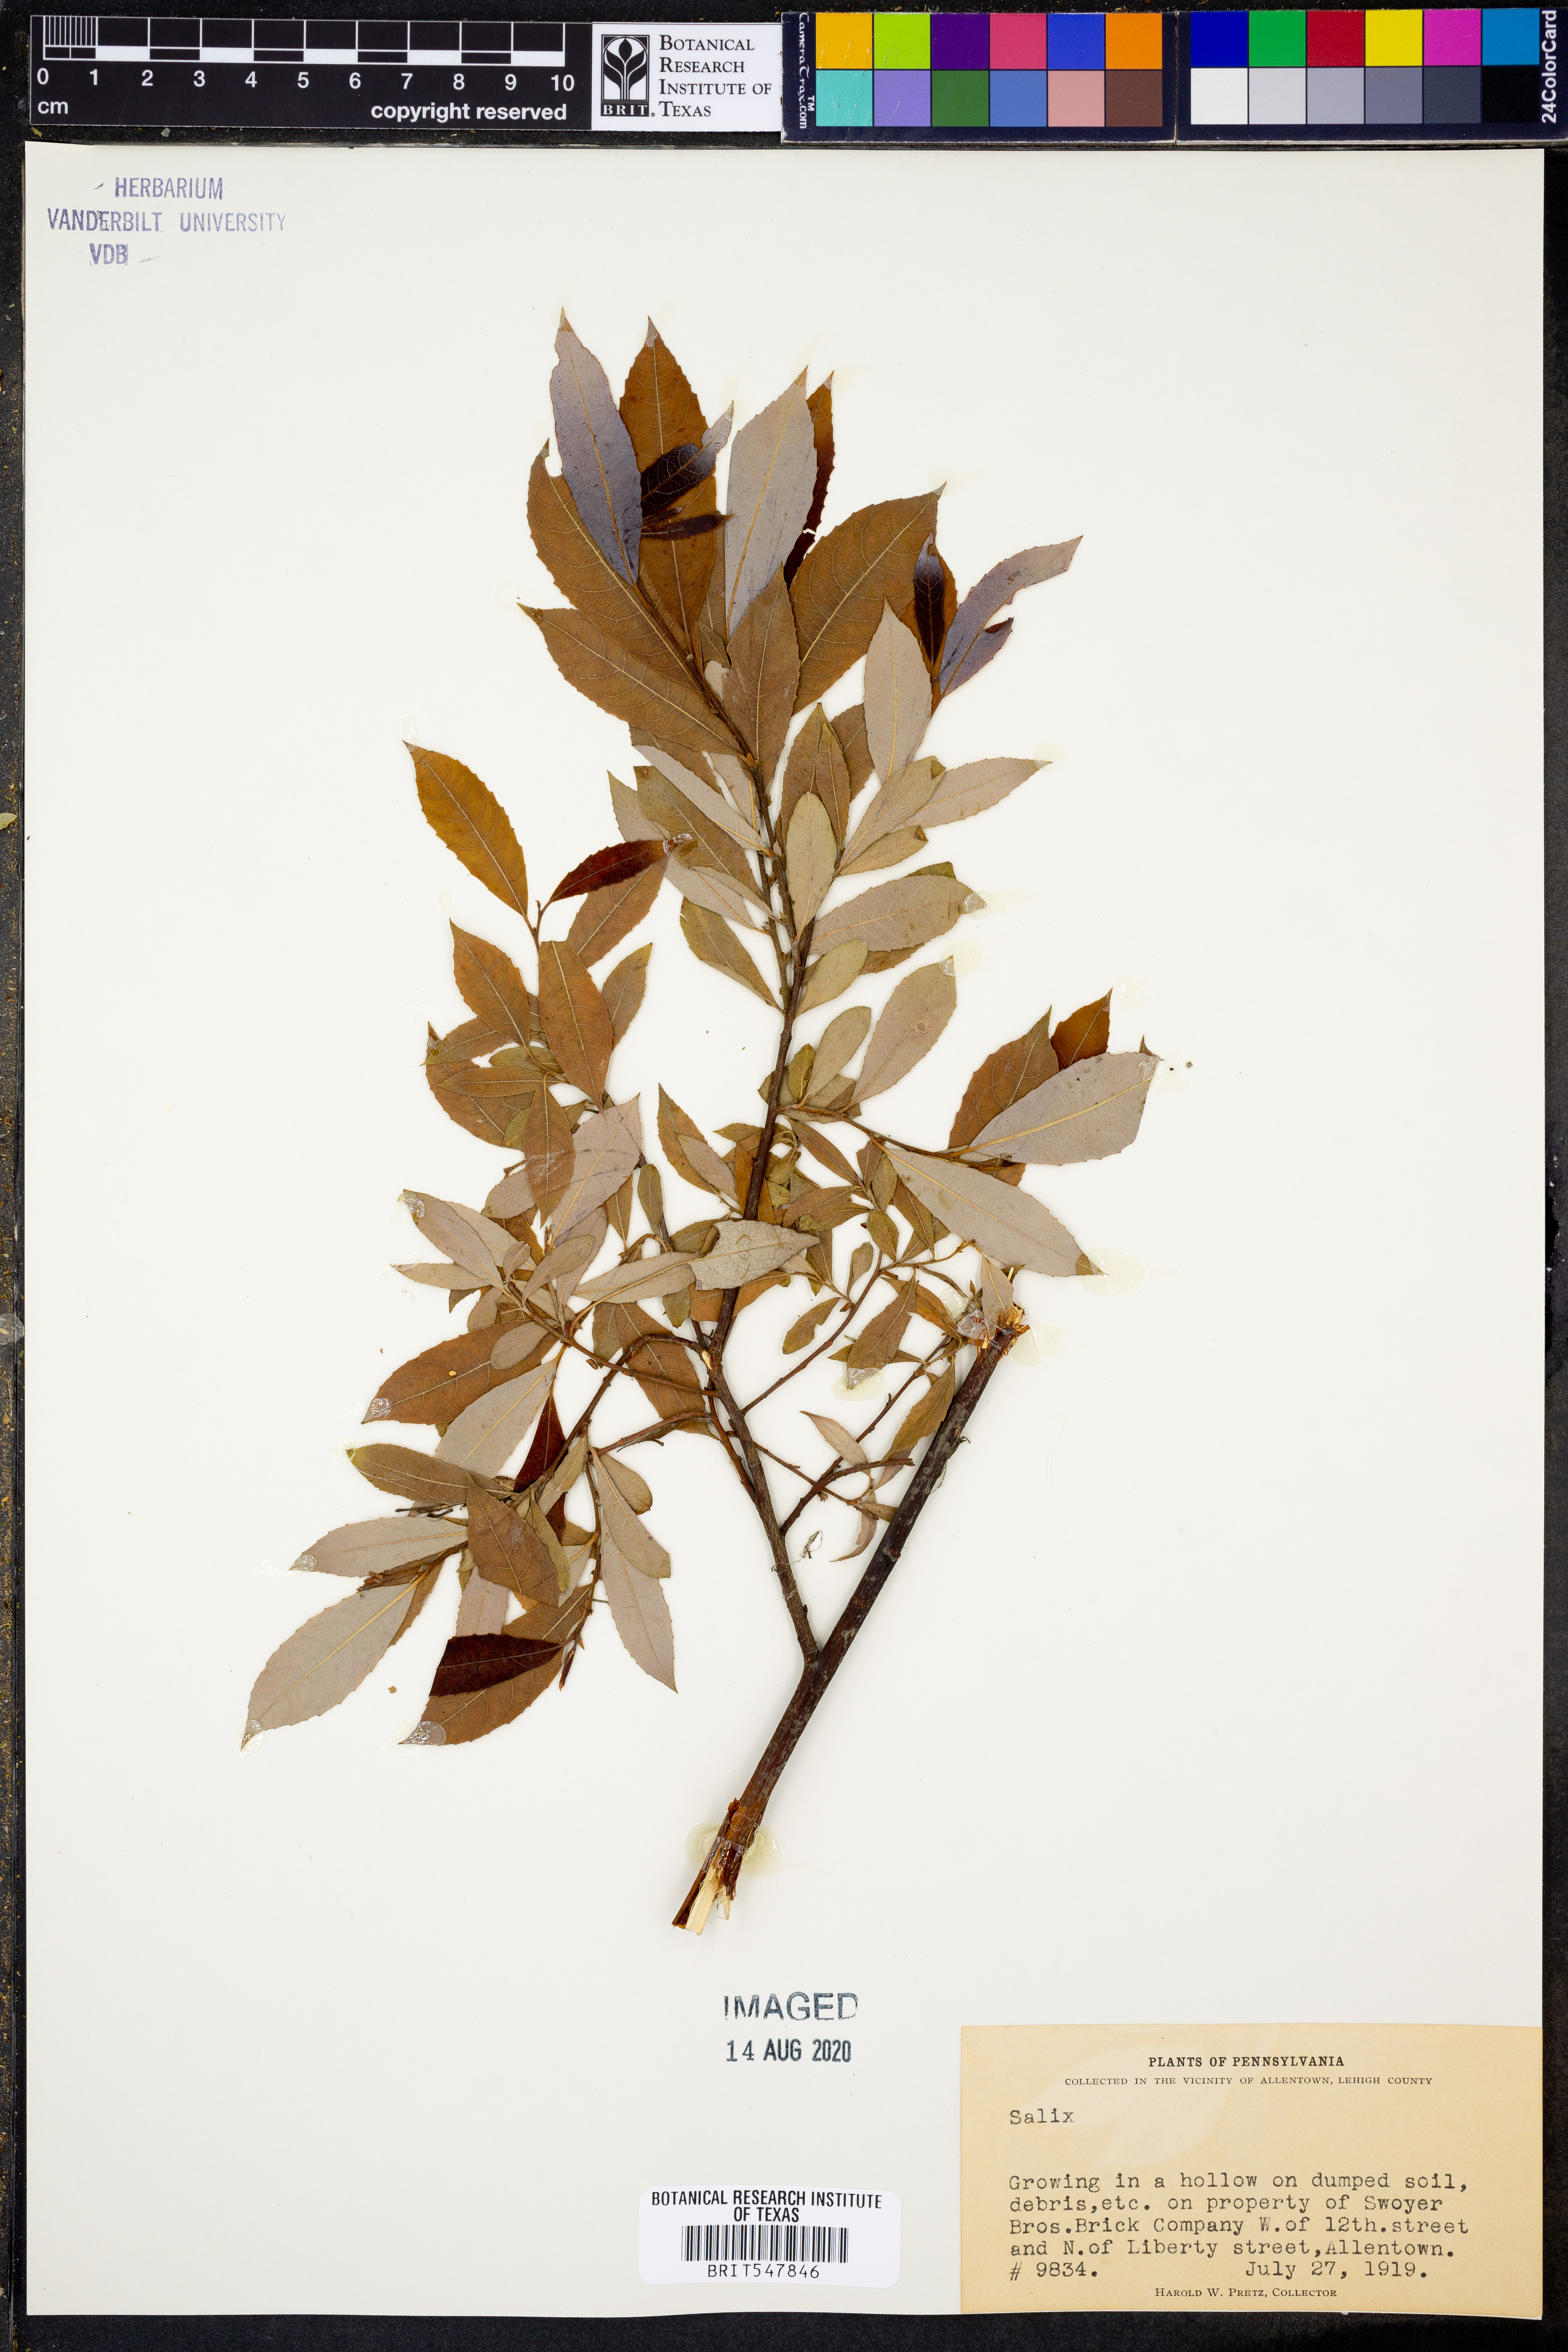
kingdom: Plantae
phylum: Tracheophyta
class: Magnoliopsida
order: Malpighiales
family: Salicaceae
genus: Salix
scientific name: Salix
